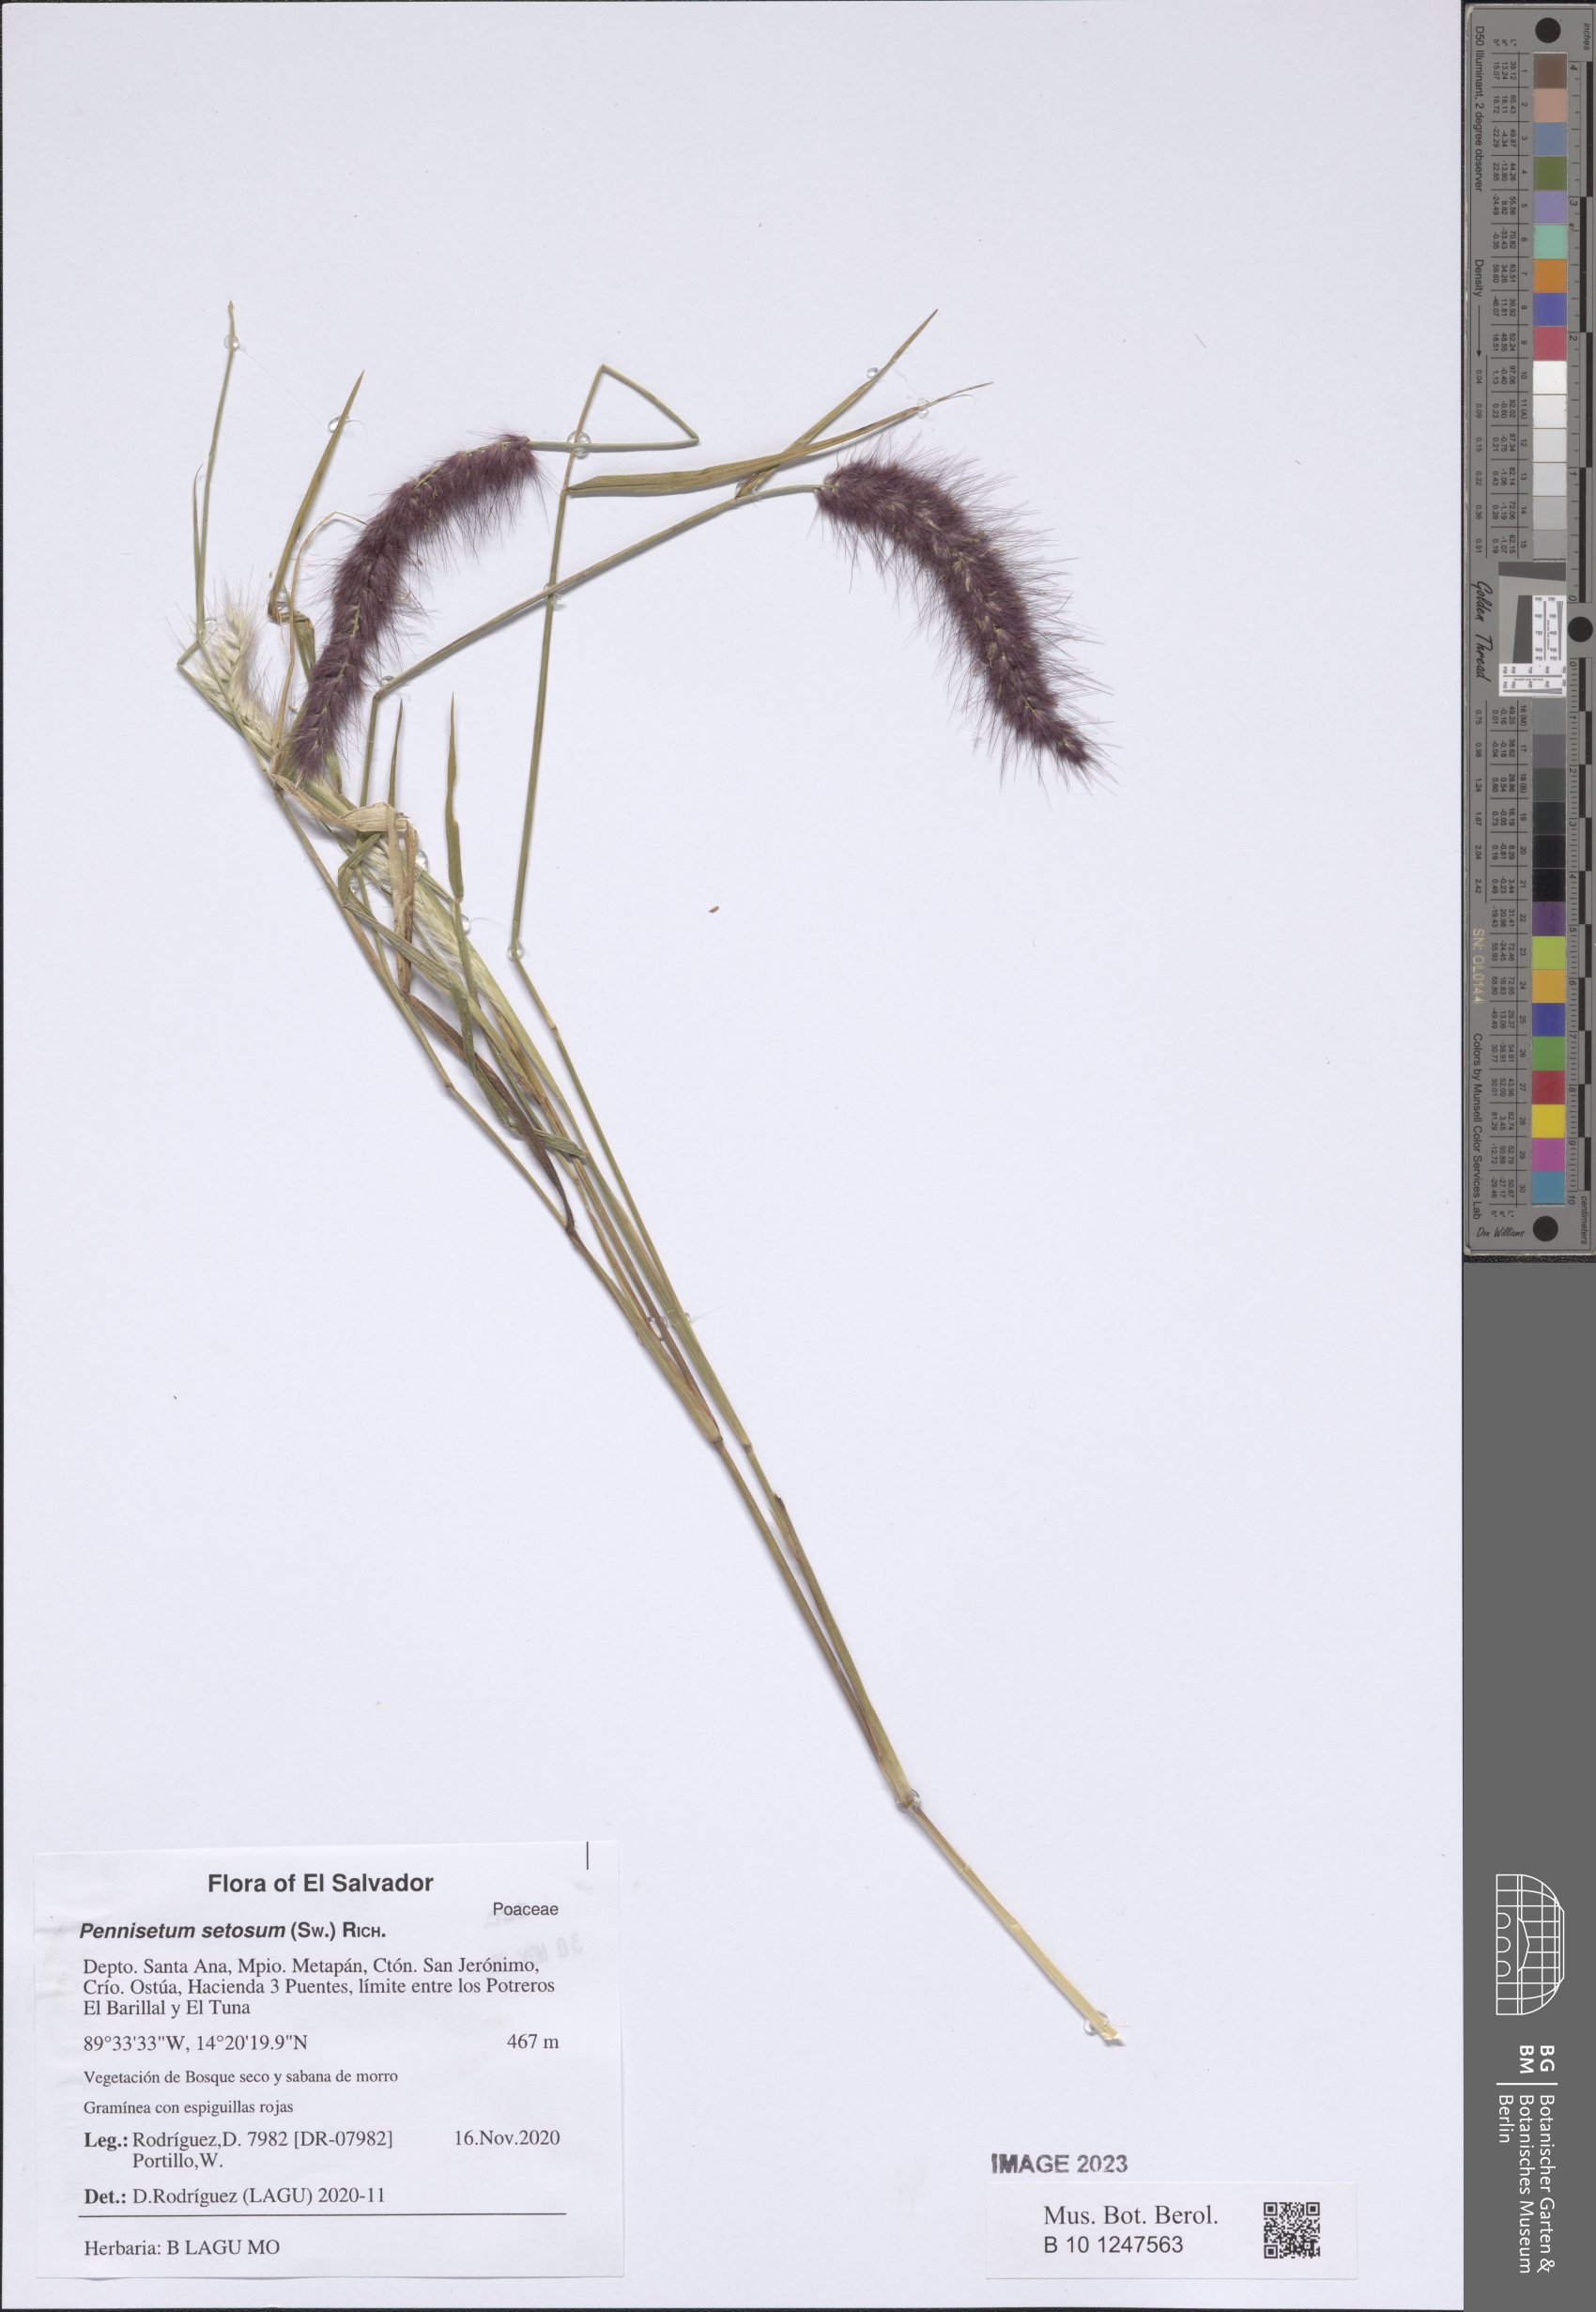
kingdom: Plantae
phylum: Tracheophyta
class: Liliopsida
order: Poales
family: Poaceae
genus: Cenchrus
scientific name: Cenchrus setosus
